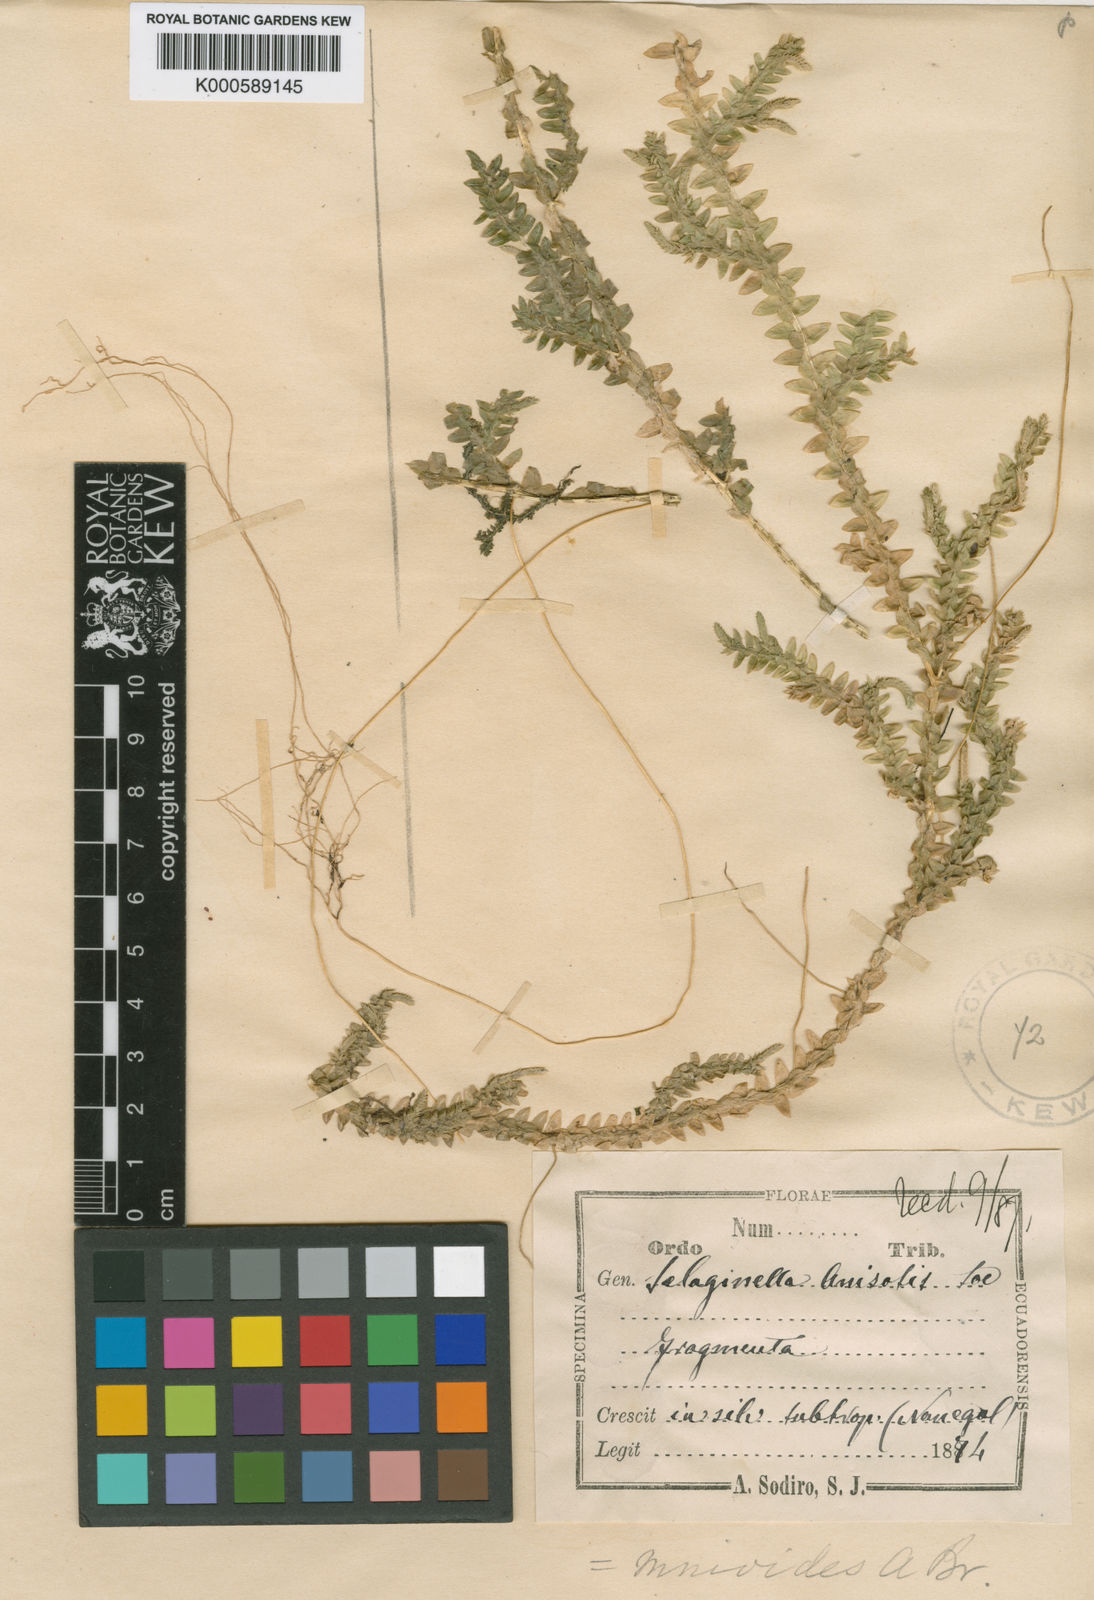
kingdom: Plantae
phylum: Tracheophyta
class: Lycopodiopsida
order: Selaginellales
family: Selaginellaceae
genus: Selaginella
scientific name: Selaginella diffusa
